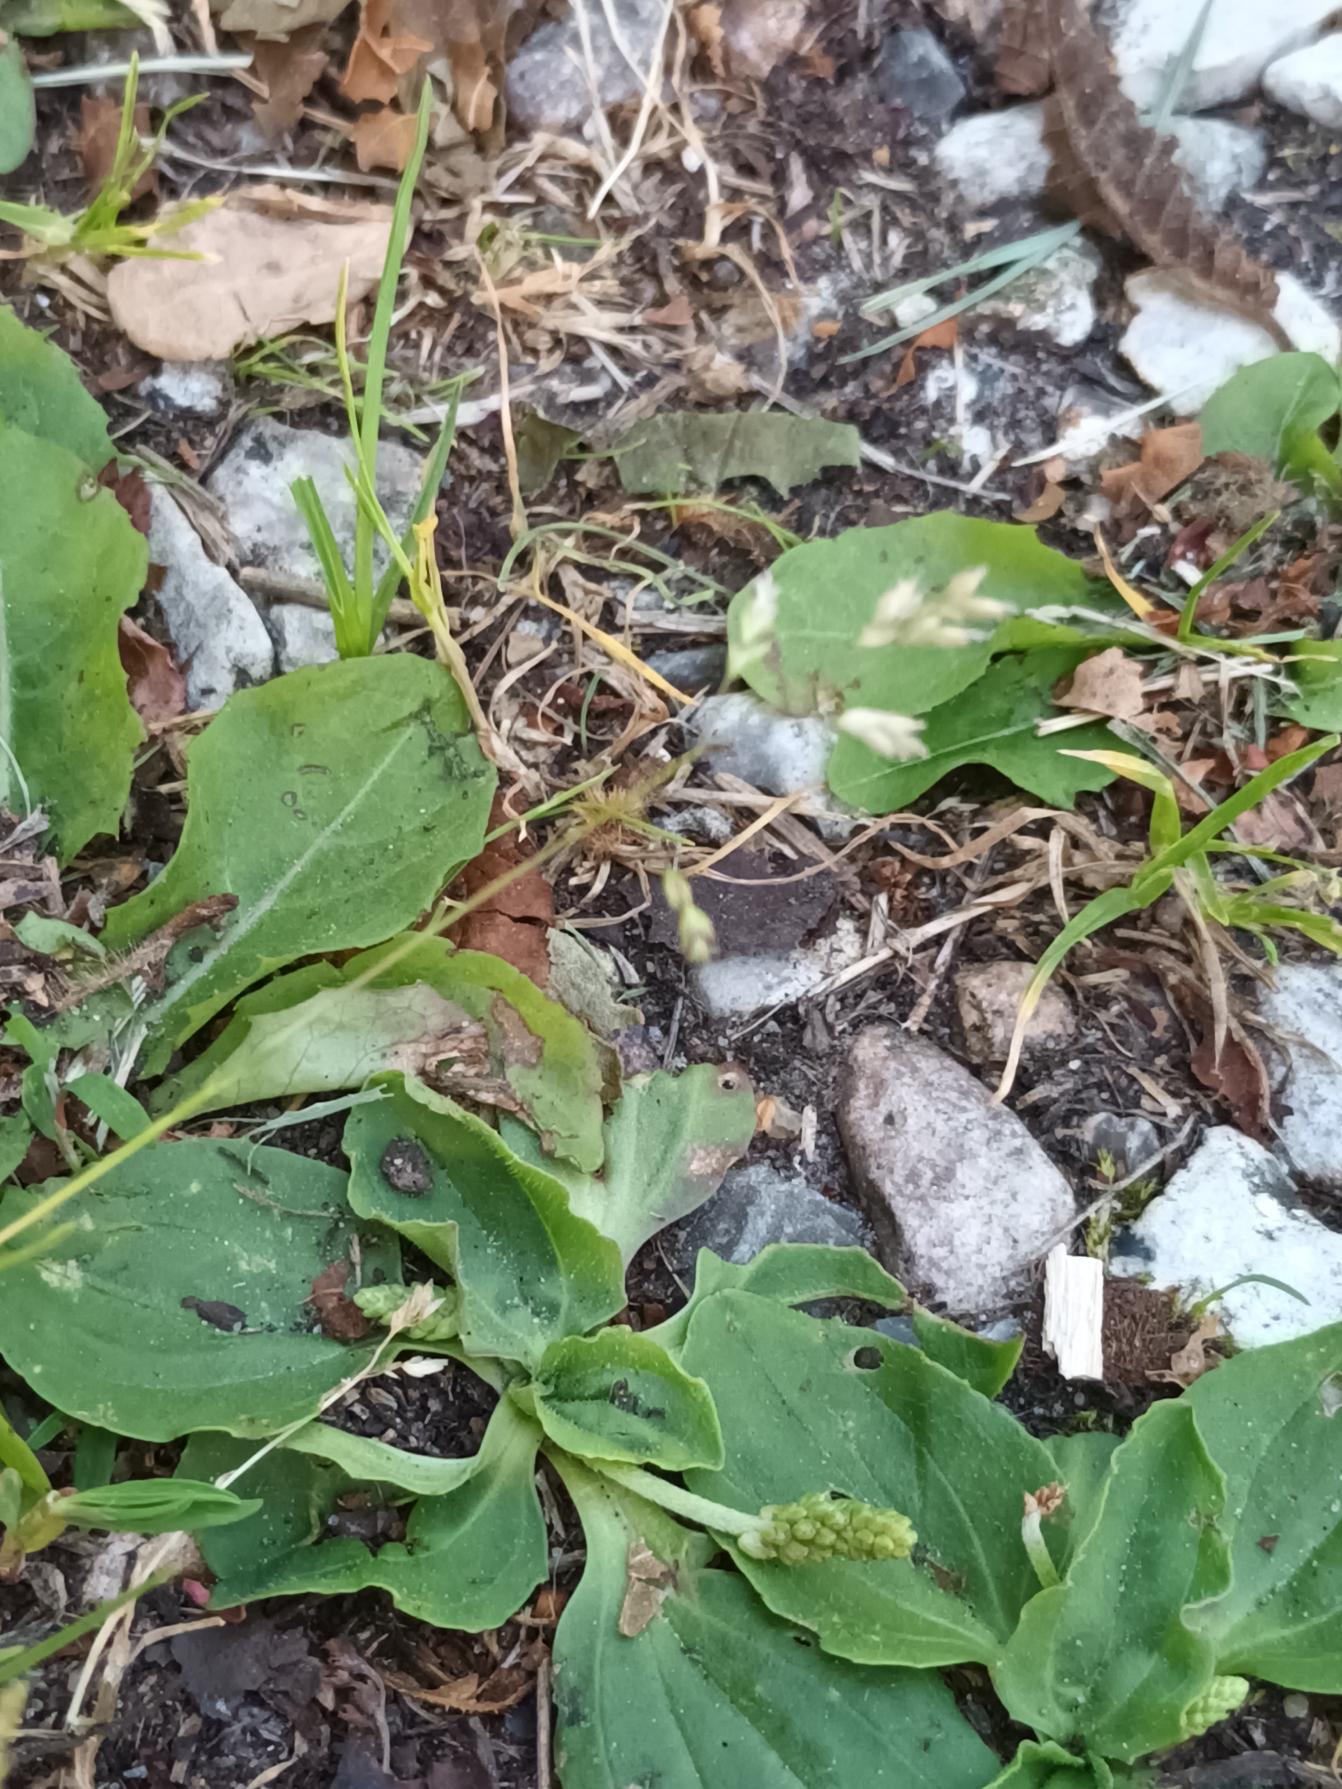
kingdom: Plantae
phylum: Tracheophyta
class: Liliopsida
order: Poales
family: Poaceae
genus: Poa
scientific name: Poa annua
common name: Enårig rapgræs
